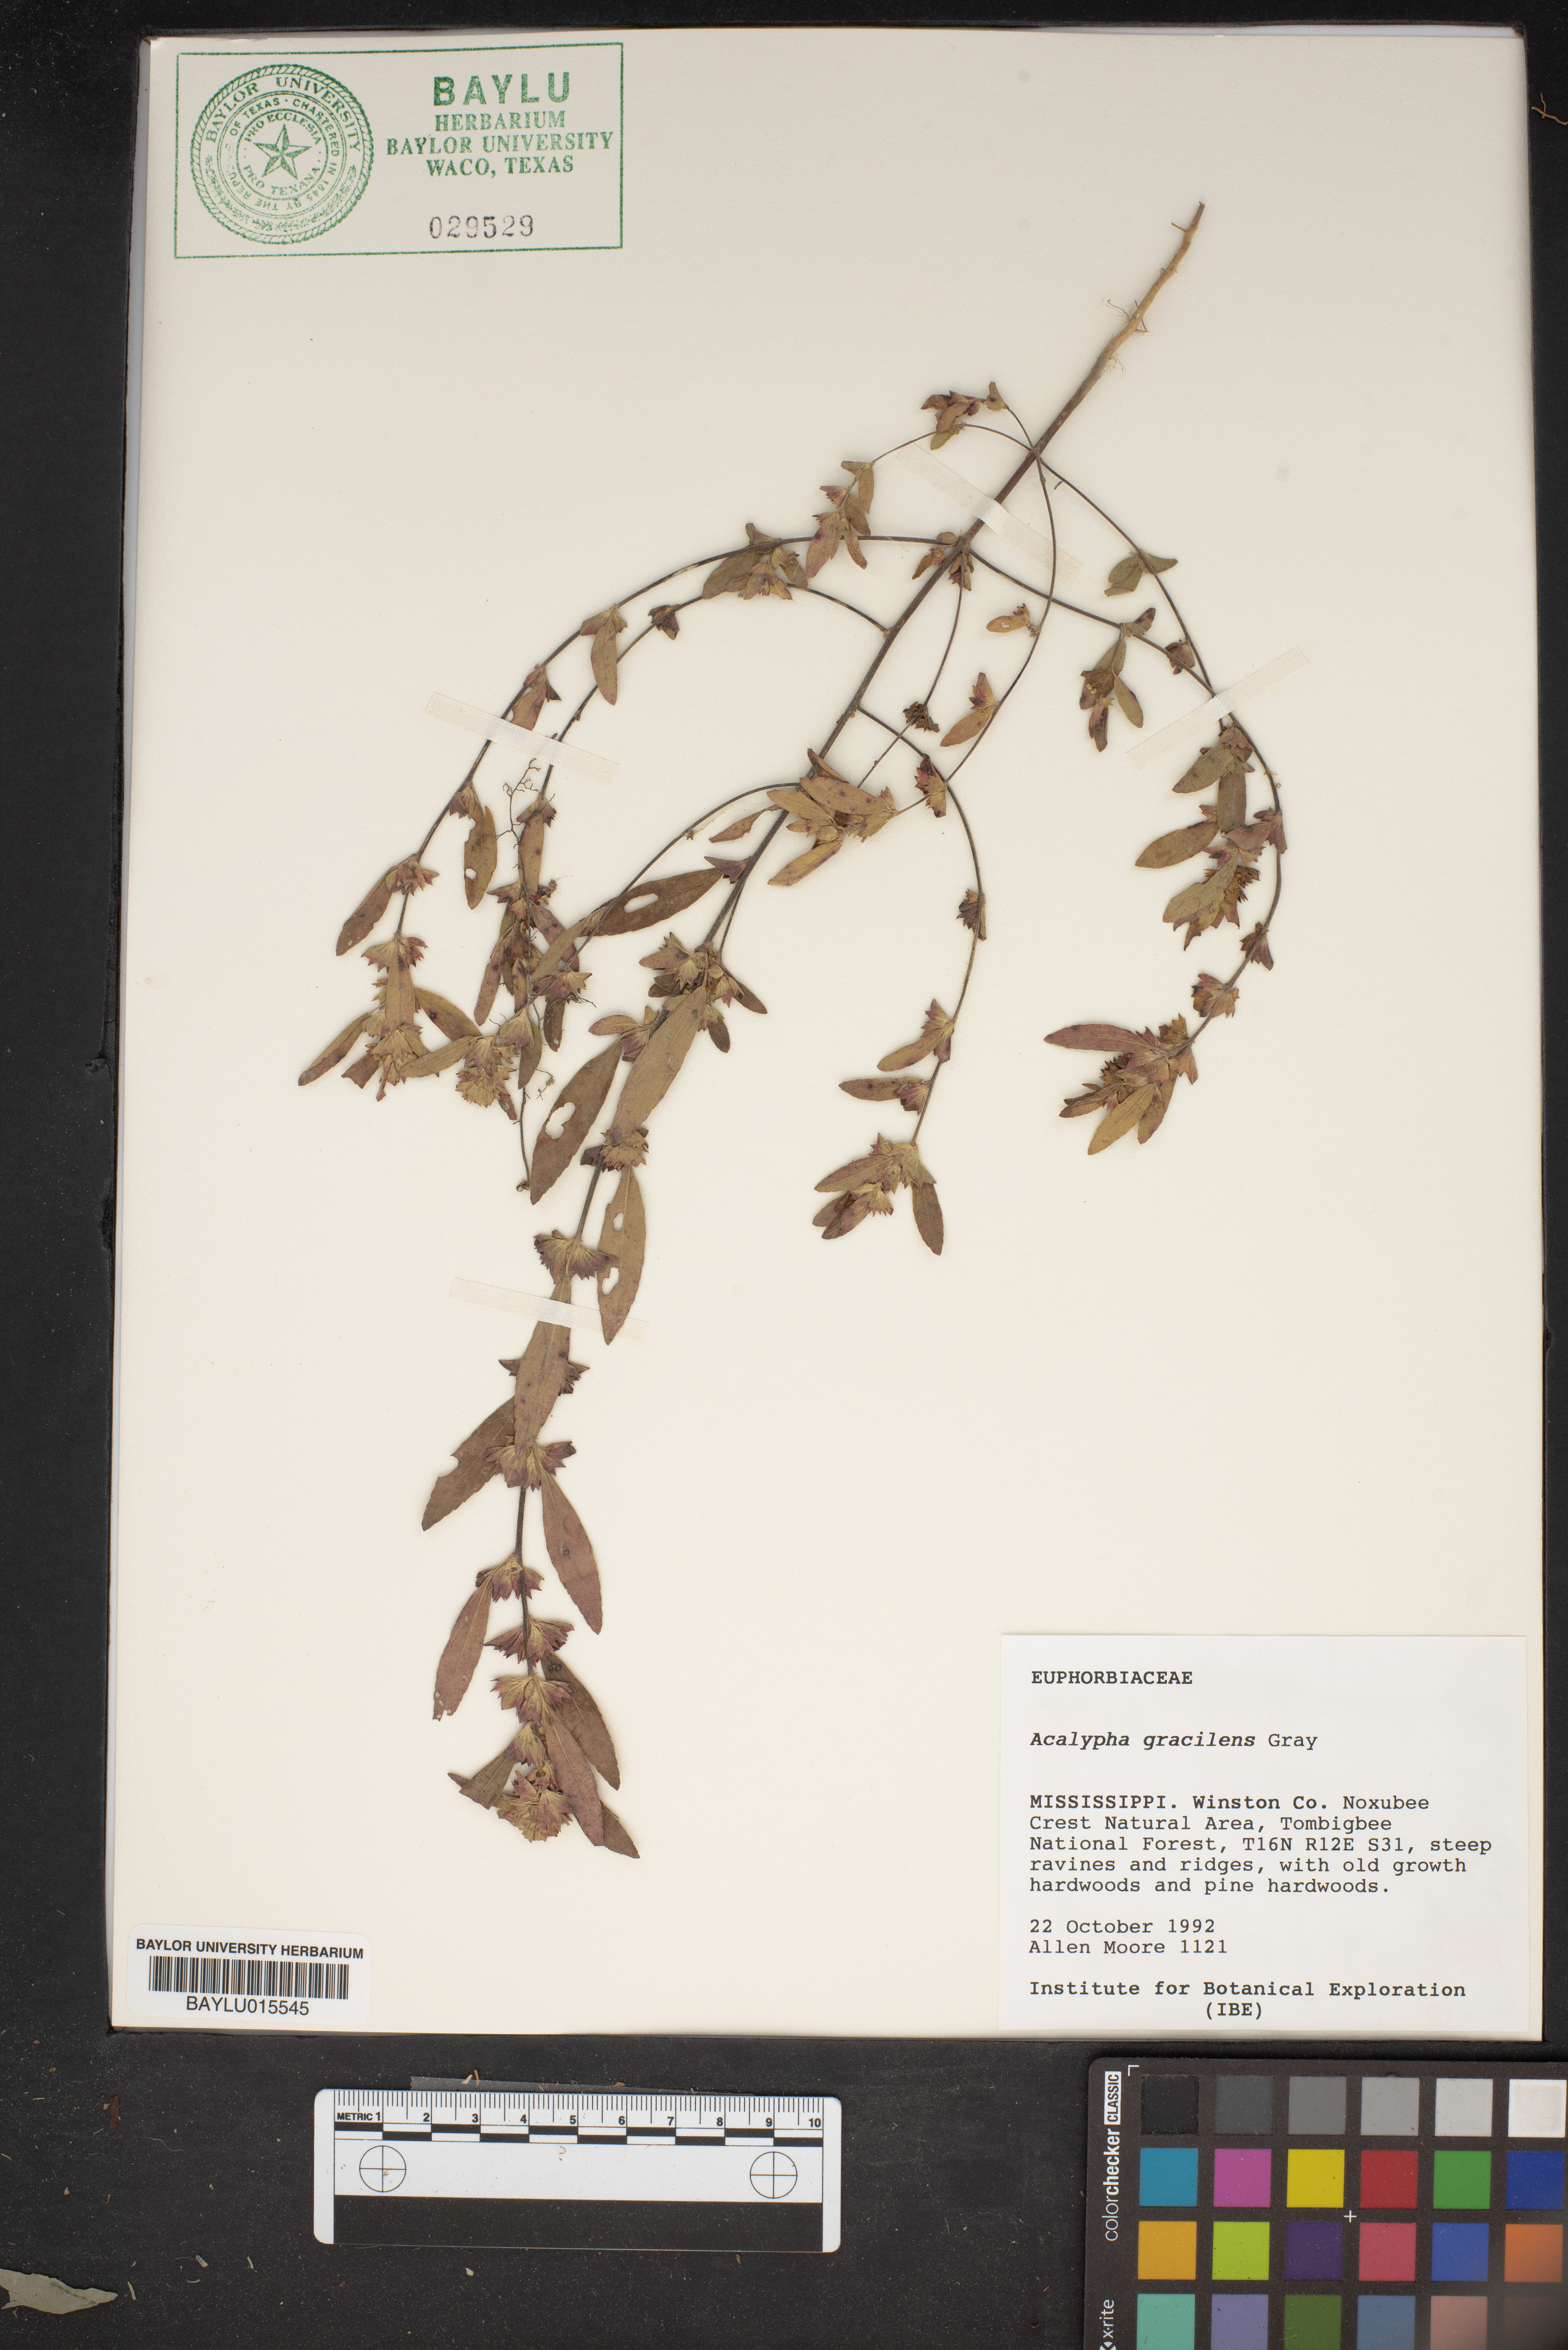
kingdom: Plantae
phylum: Tracheophyta
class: Magnoliopsida
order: Malpighiales
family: Euphorbiaceae
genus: Acalypha
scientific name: Acalypha gracilens
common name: Slender three-seeded mercury
